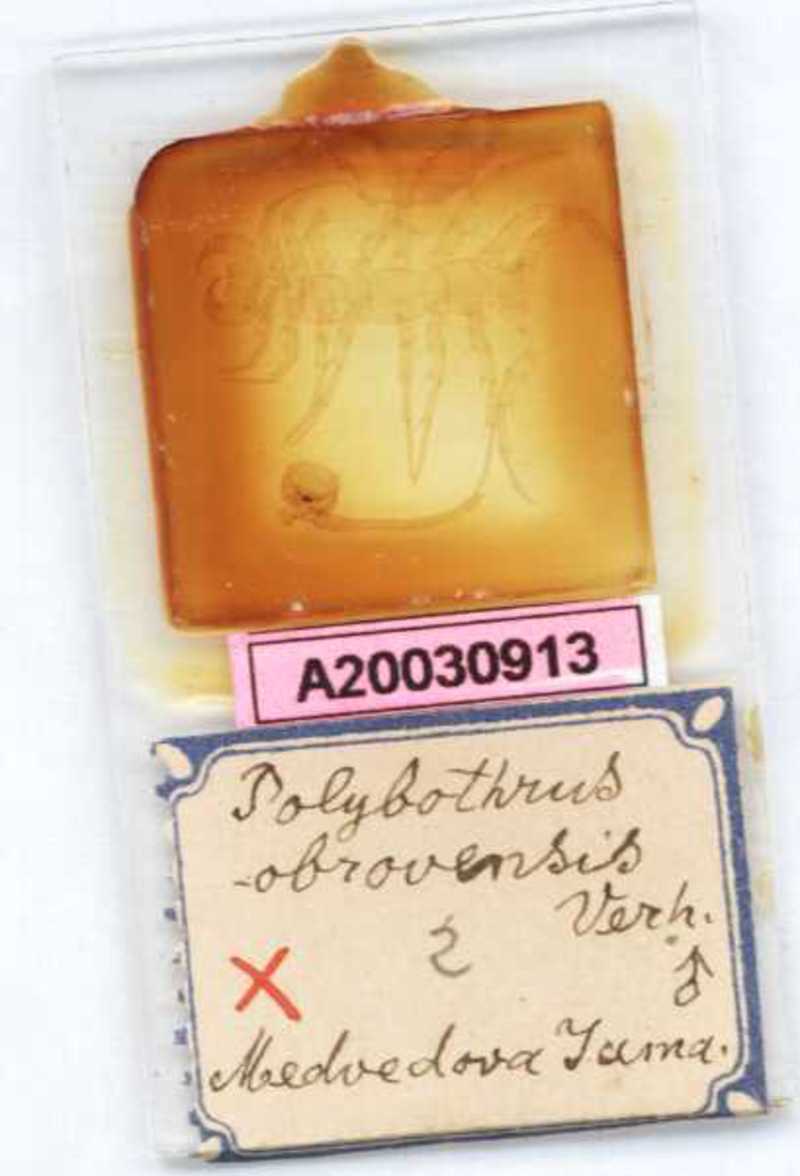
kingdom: Animalia
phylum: Arthropoda
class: Chilopoda
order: Lithobiomorpha
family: Lithobiidae
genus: Polybothrus
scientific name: Polybothrus obrovensis
